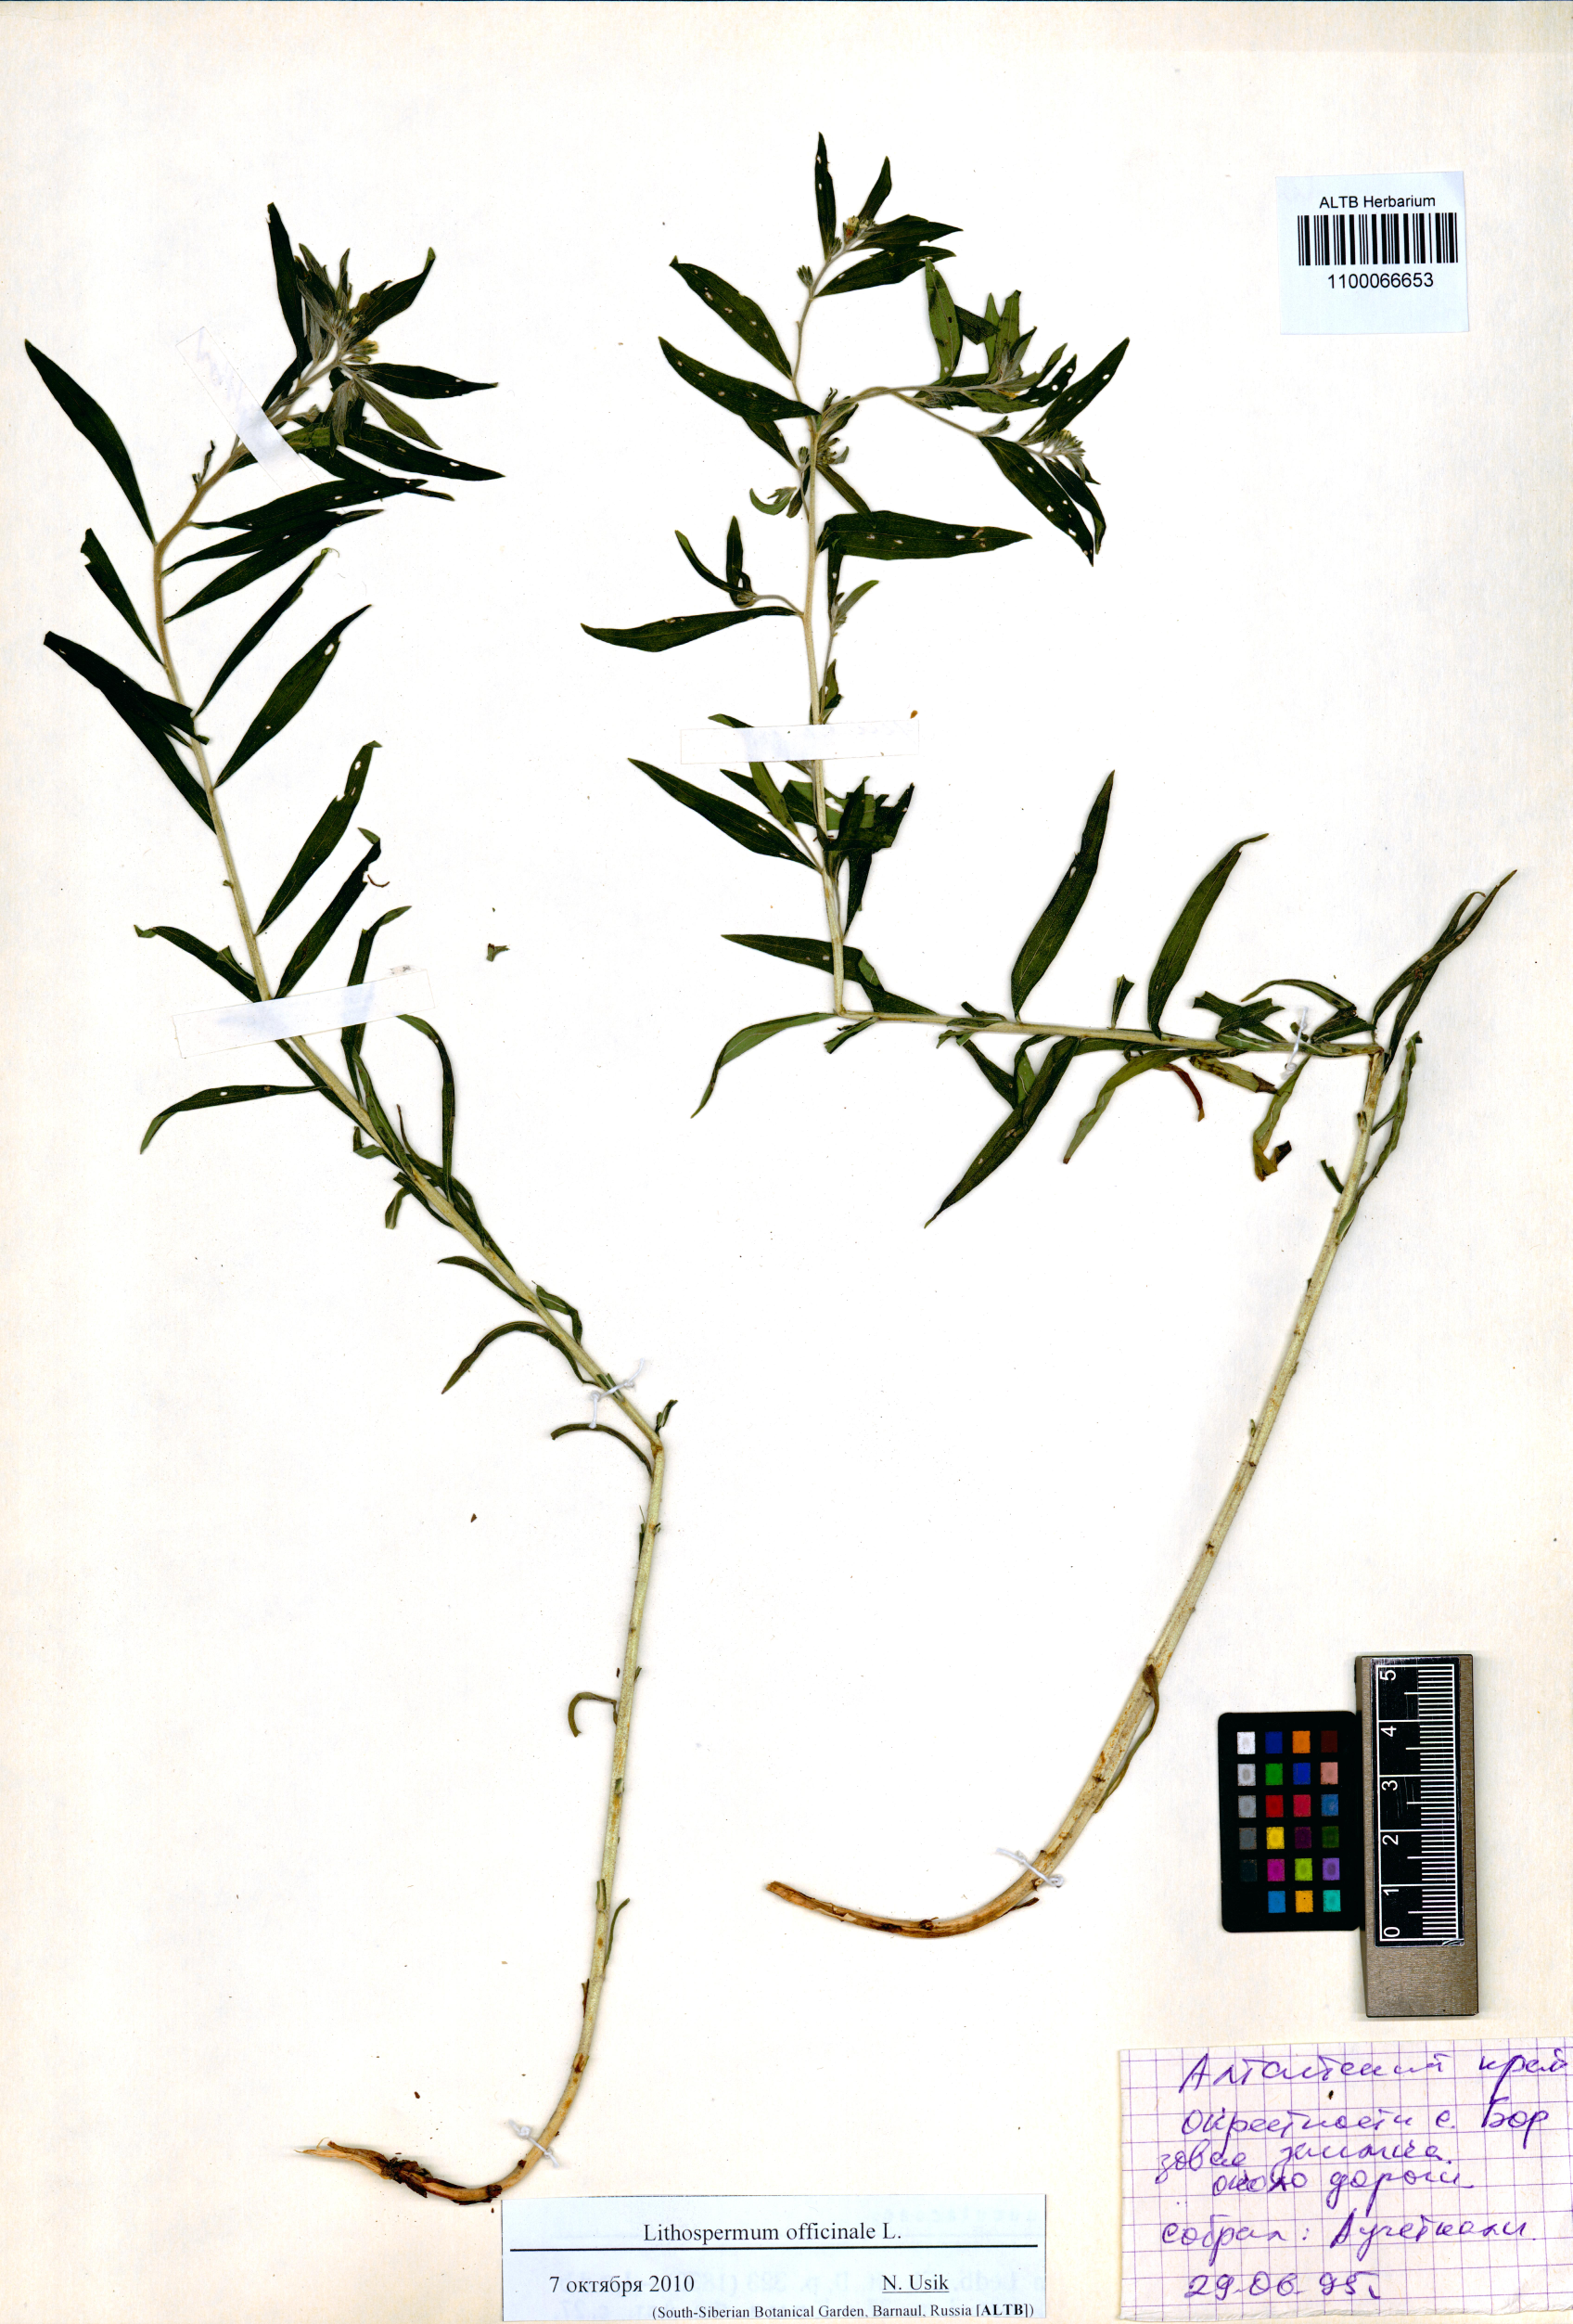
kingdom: Plantae
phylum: Tracheophyta
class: Magnoliopsida
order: Boraginales
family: Boraginaceae
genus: Lithospermum
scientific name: Lithospermum officinale
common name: Common gromwell
